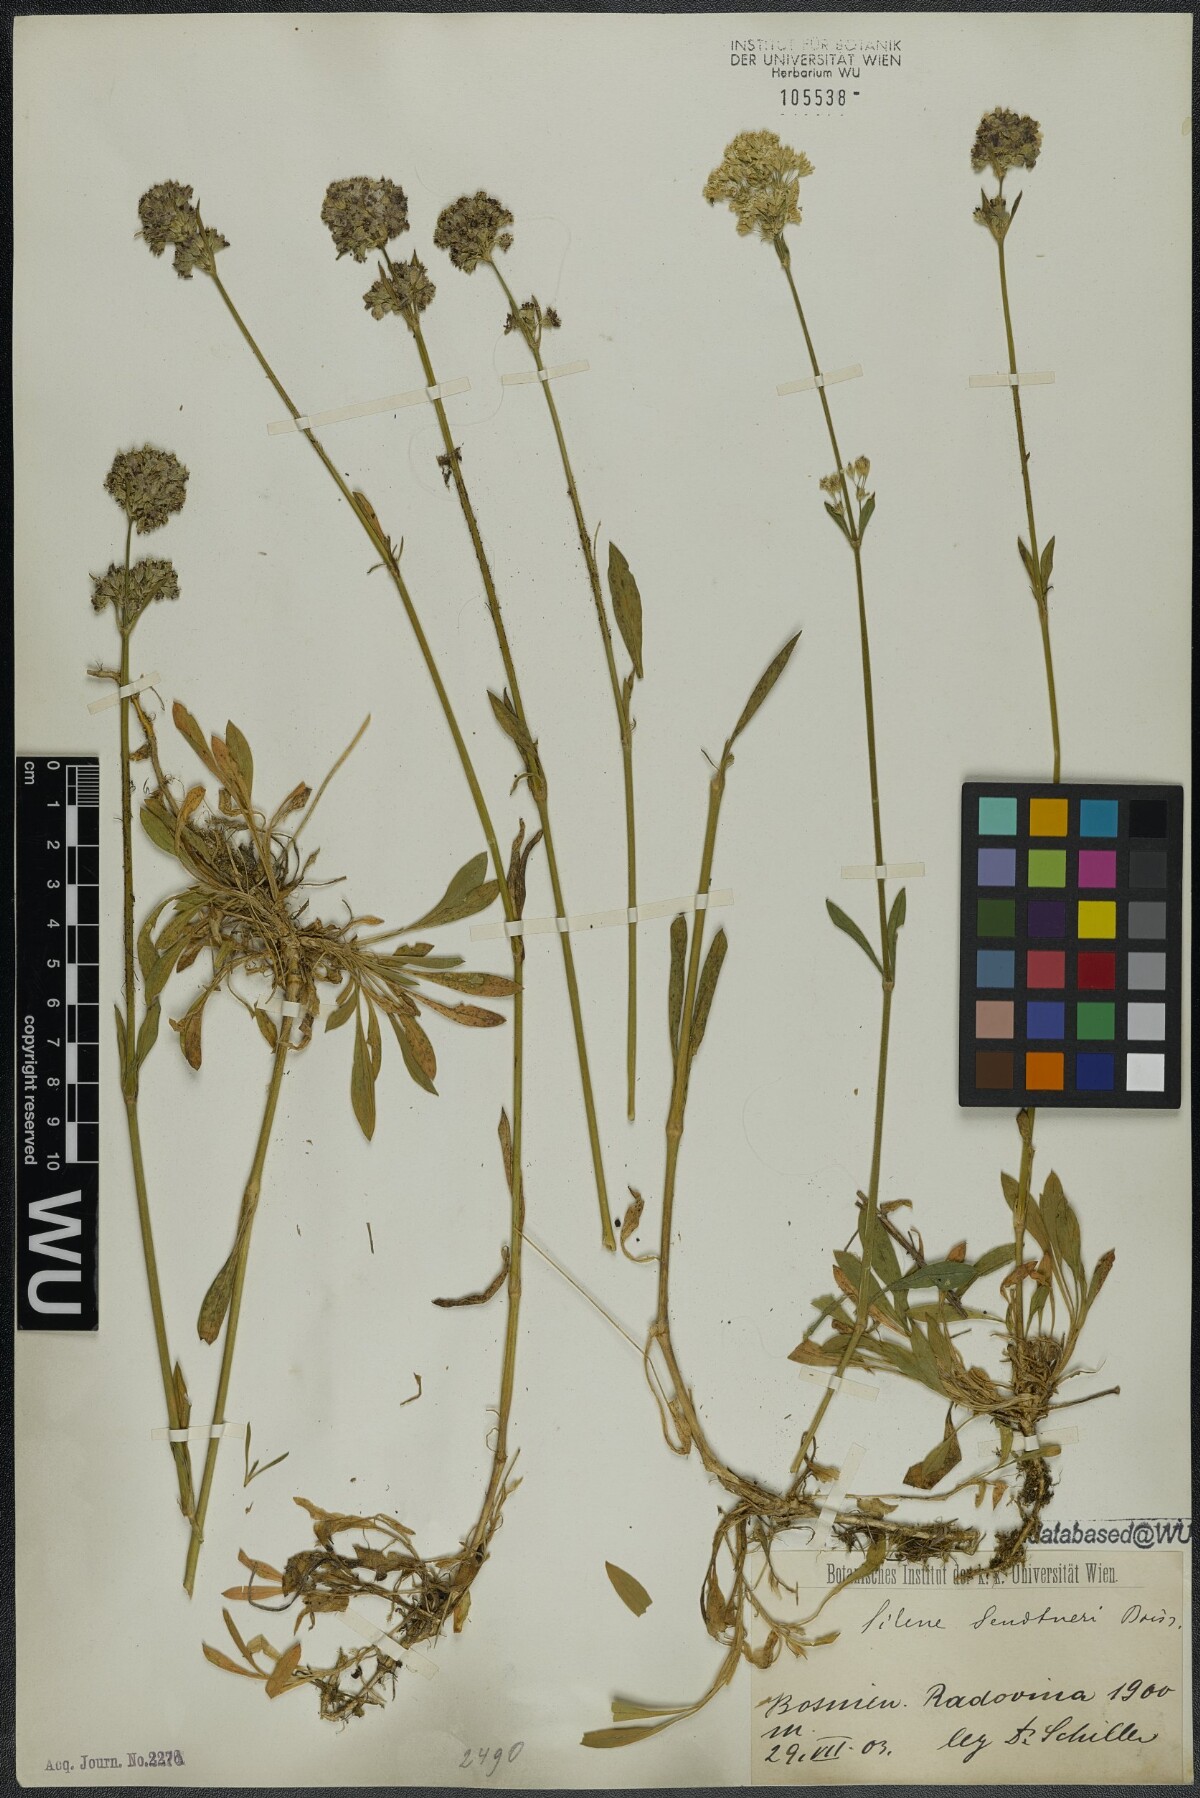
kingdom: Plantae
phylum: Tracheophyta
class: Magnoliopsida
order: Caryophyllales
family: Caryophyllaceae
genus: Silene
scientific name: Silene sendtneri
